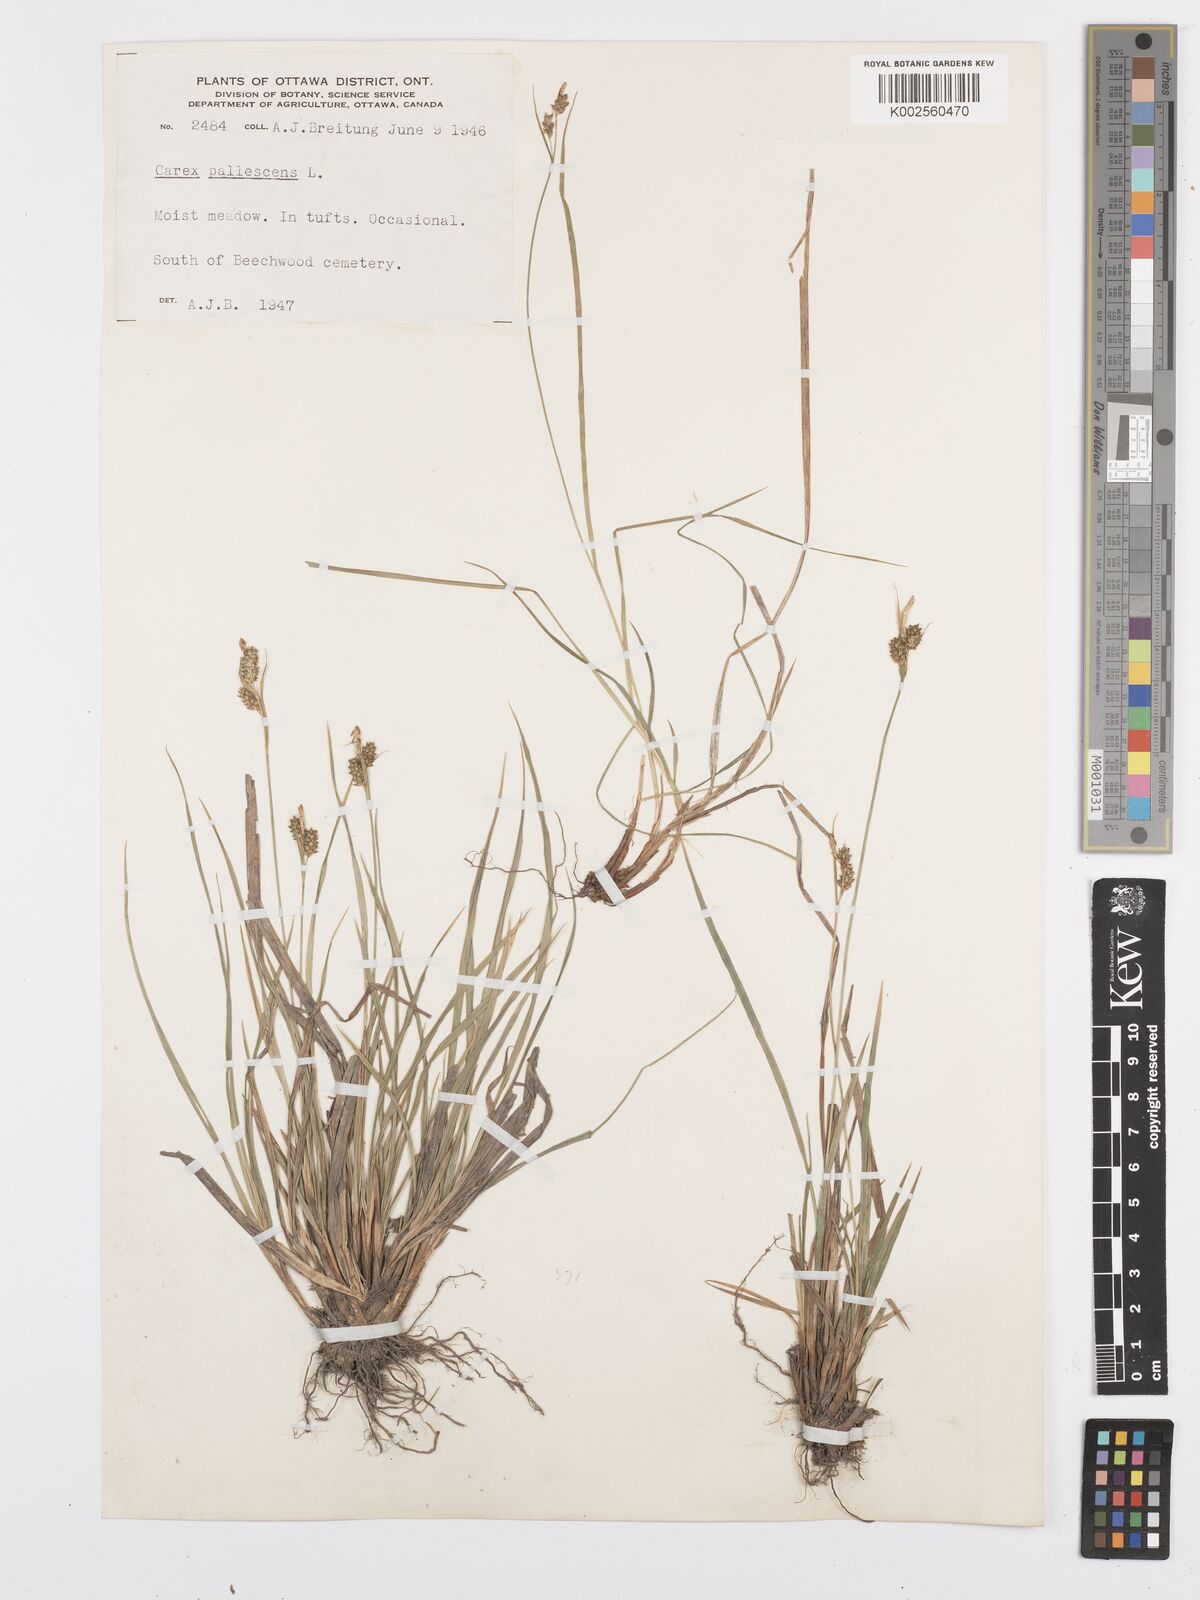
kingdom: Plantae
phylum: Tracheophyta
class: Liliopsida
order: Poales
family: Cyperaceae
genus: Carex
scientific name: Carex pallescens
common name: Pale sedge
